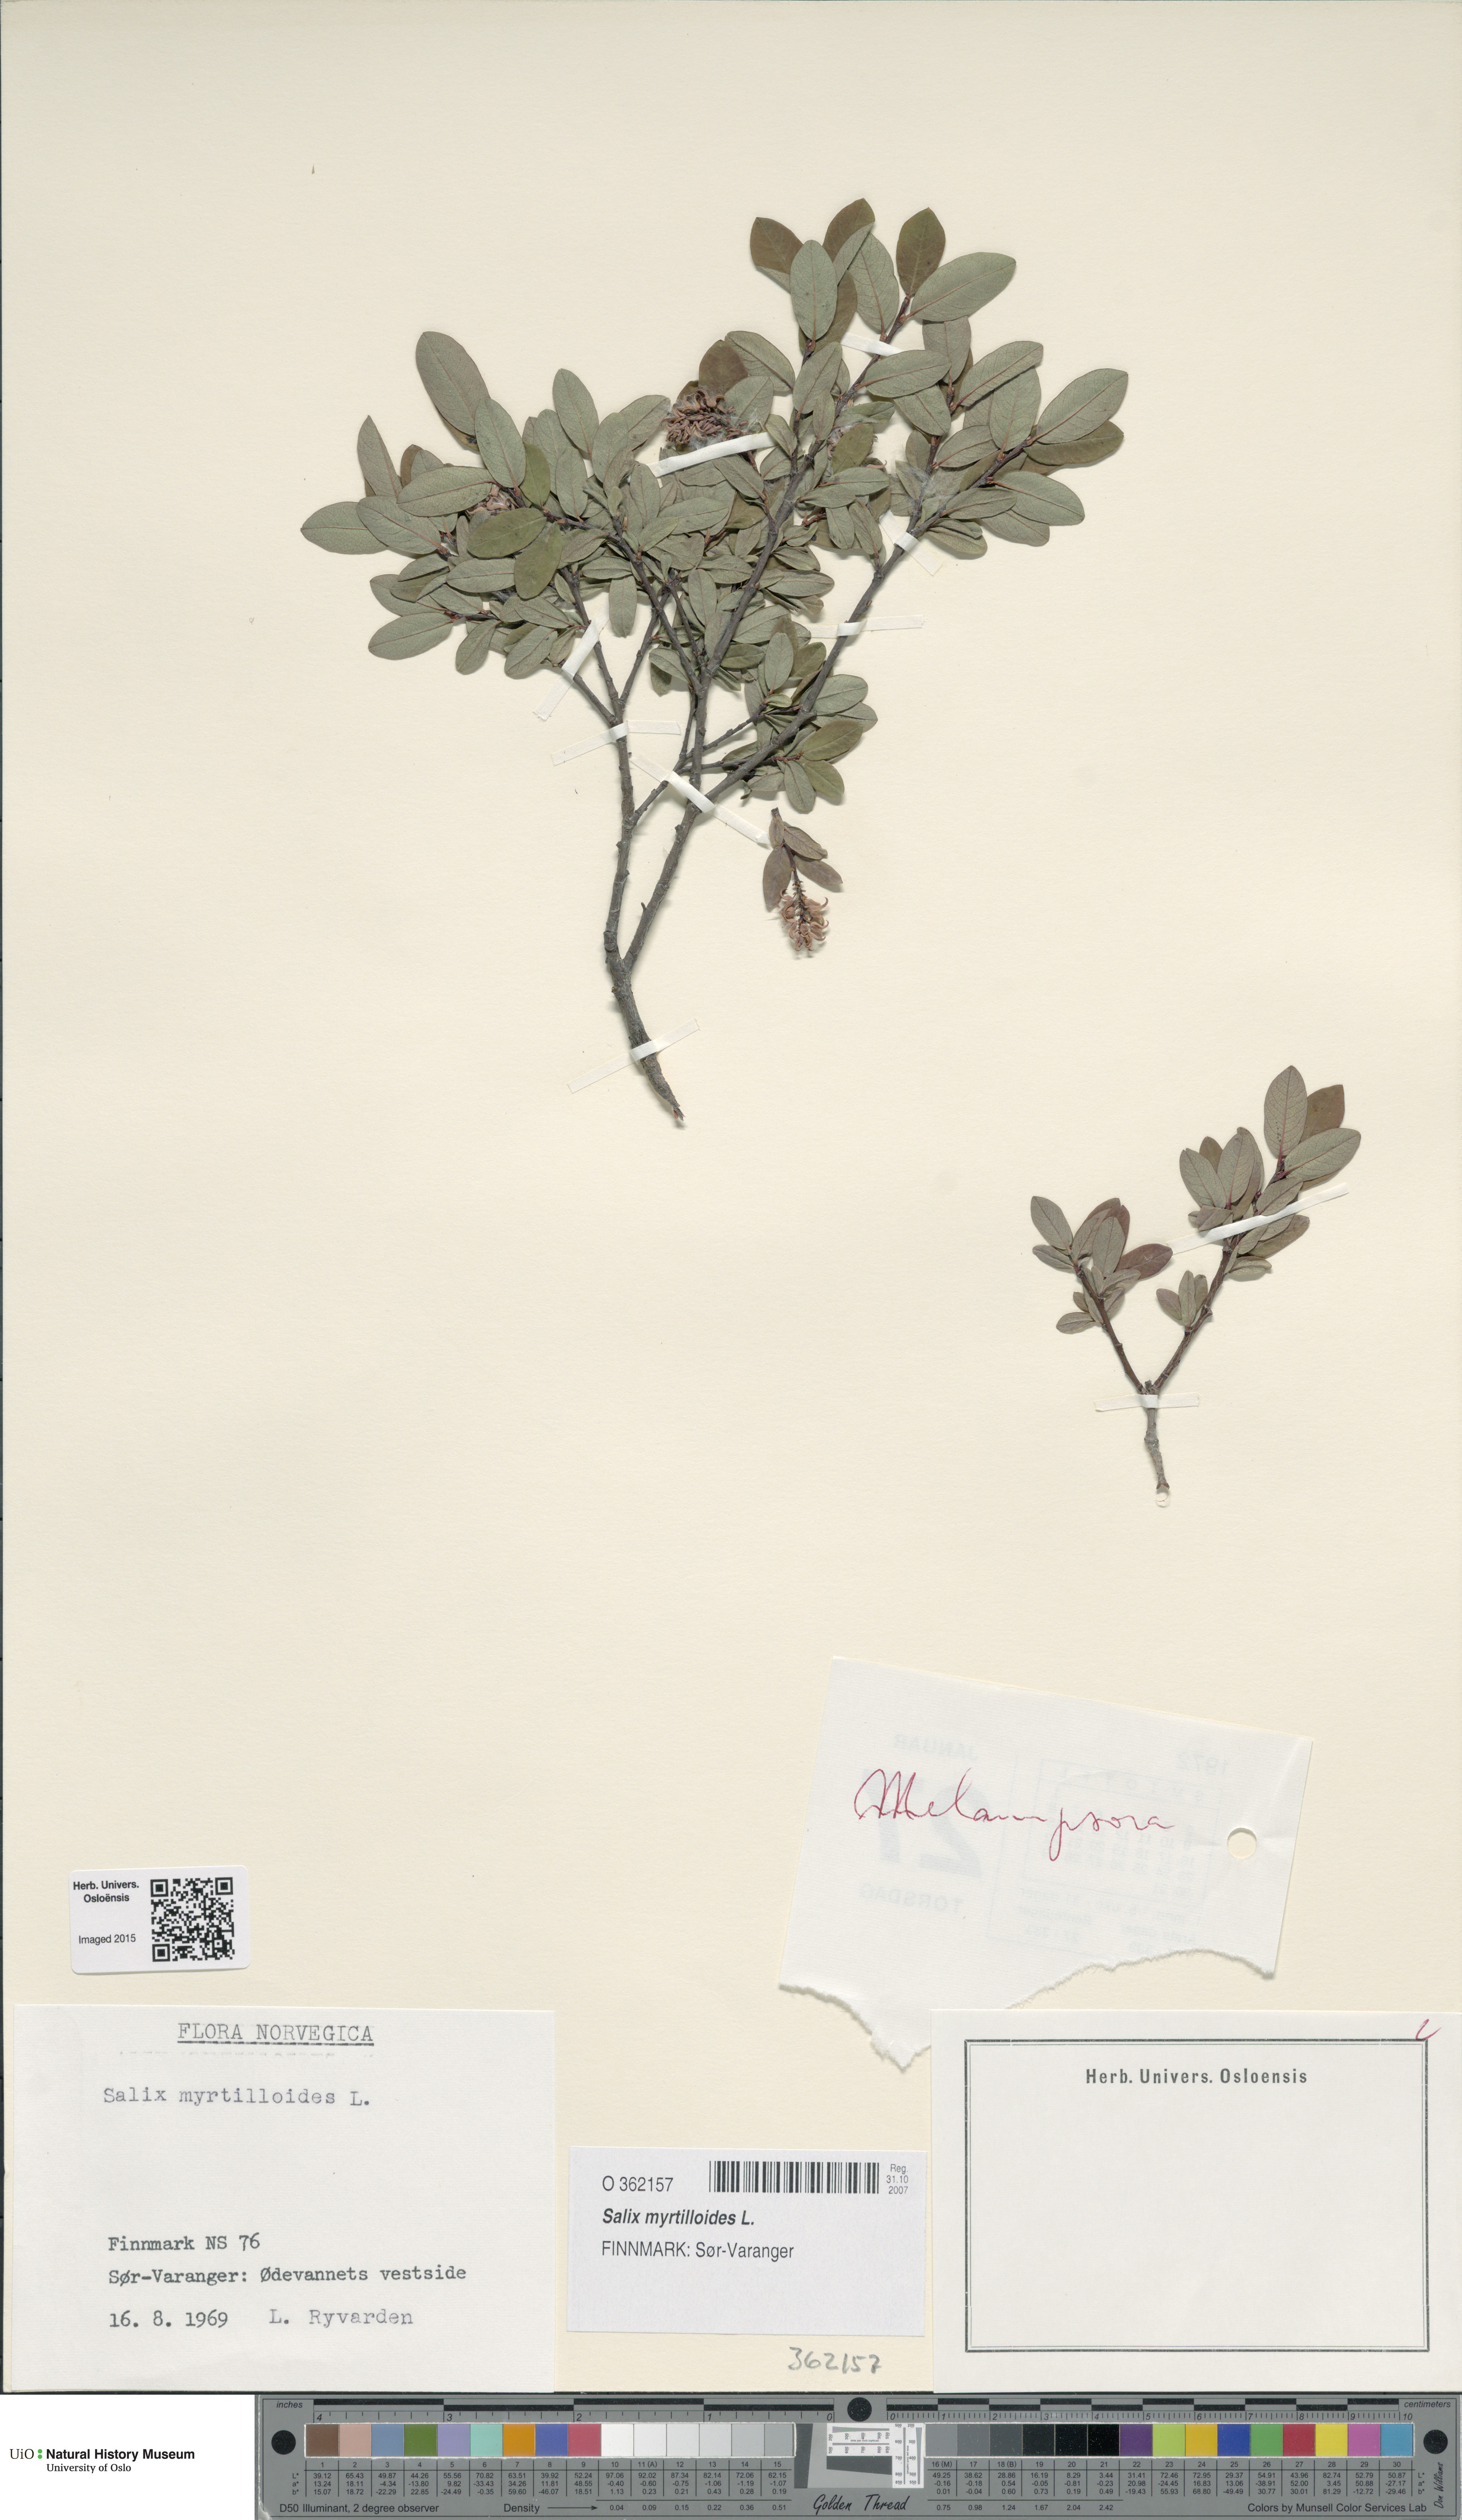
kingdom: Plantae
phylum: Tracheophyta
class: Magnoliopsida
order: Malpighiales
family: Salicaceae
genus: Salix
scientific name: Salix myrtilloides
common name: Myrtle-leaved willow
